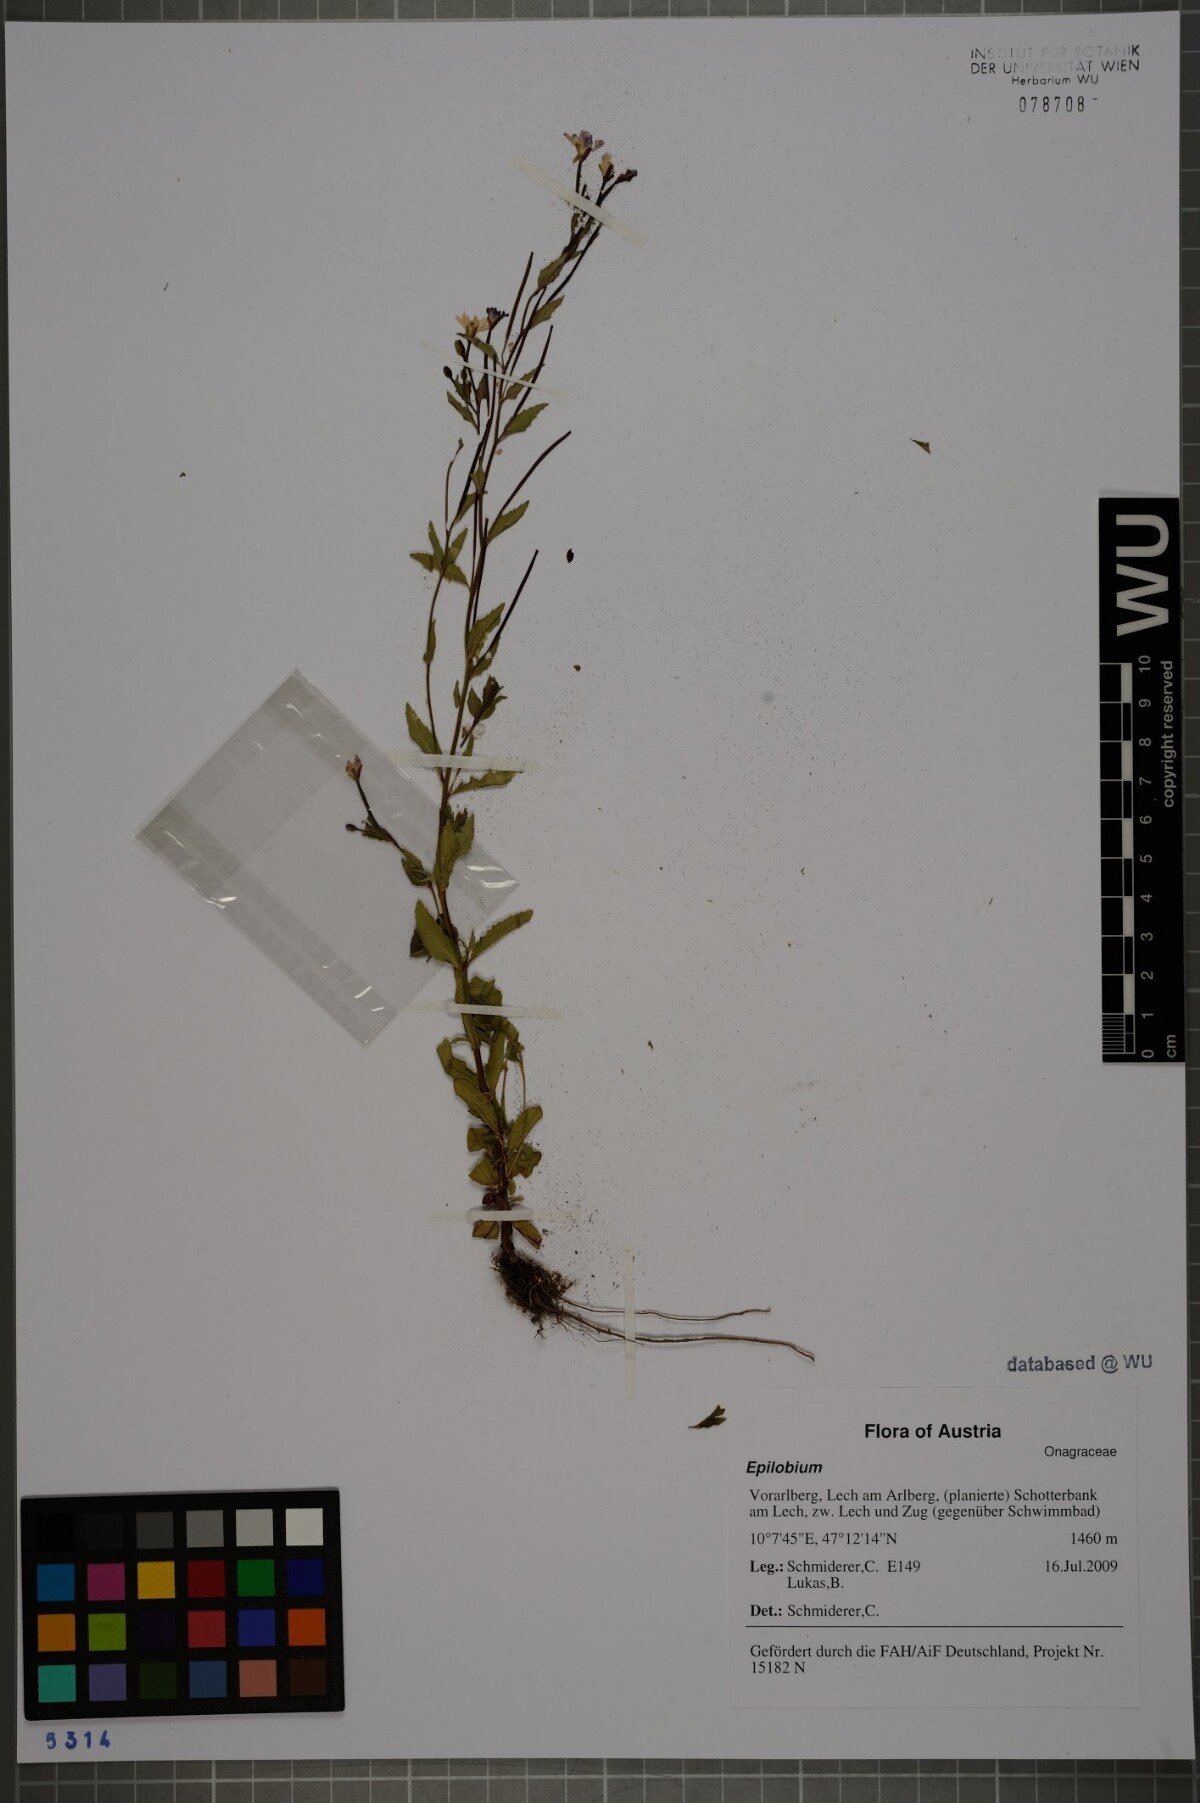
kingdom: Plantae
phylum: Tracheophyta
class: Magnoliopsida
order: Myrtales
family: Onagraceae
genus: Epilobium
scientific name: Epilobium
